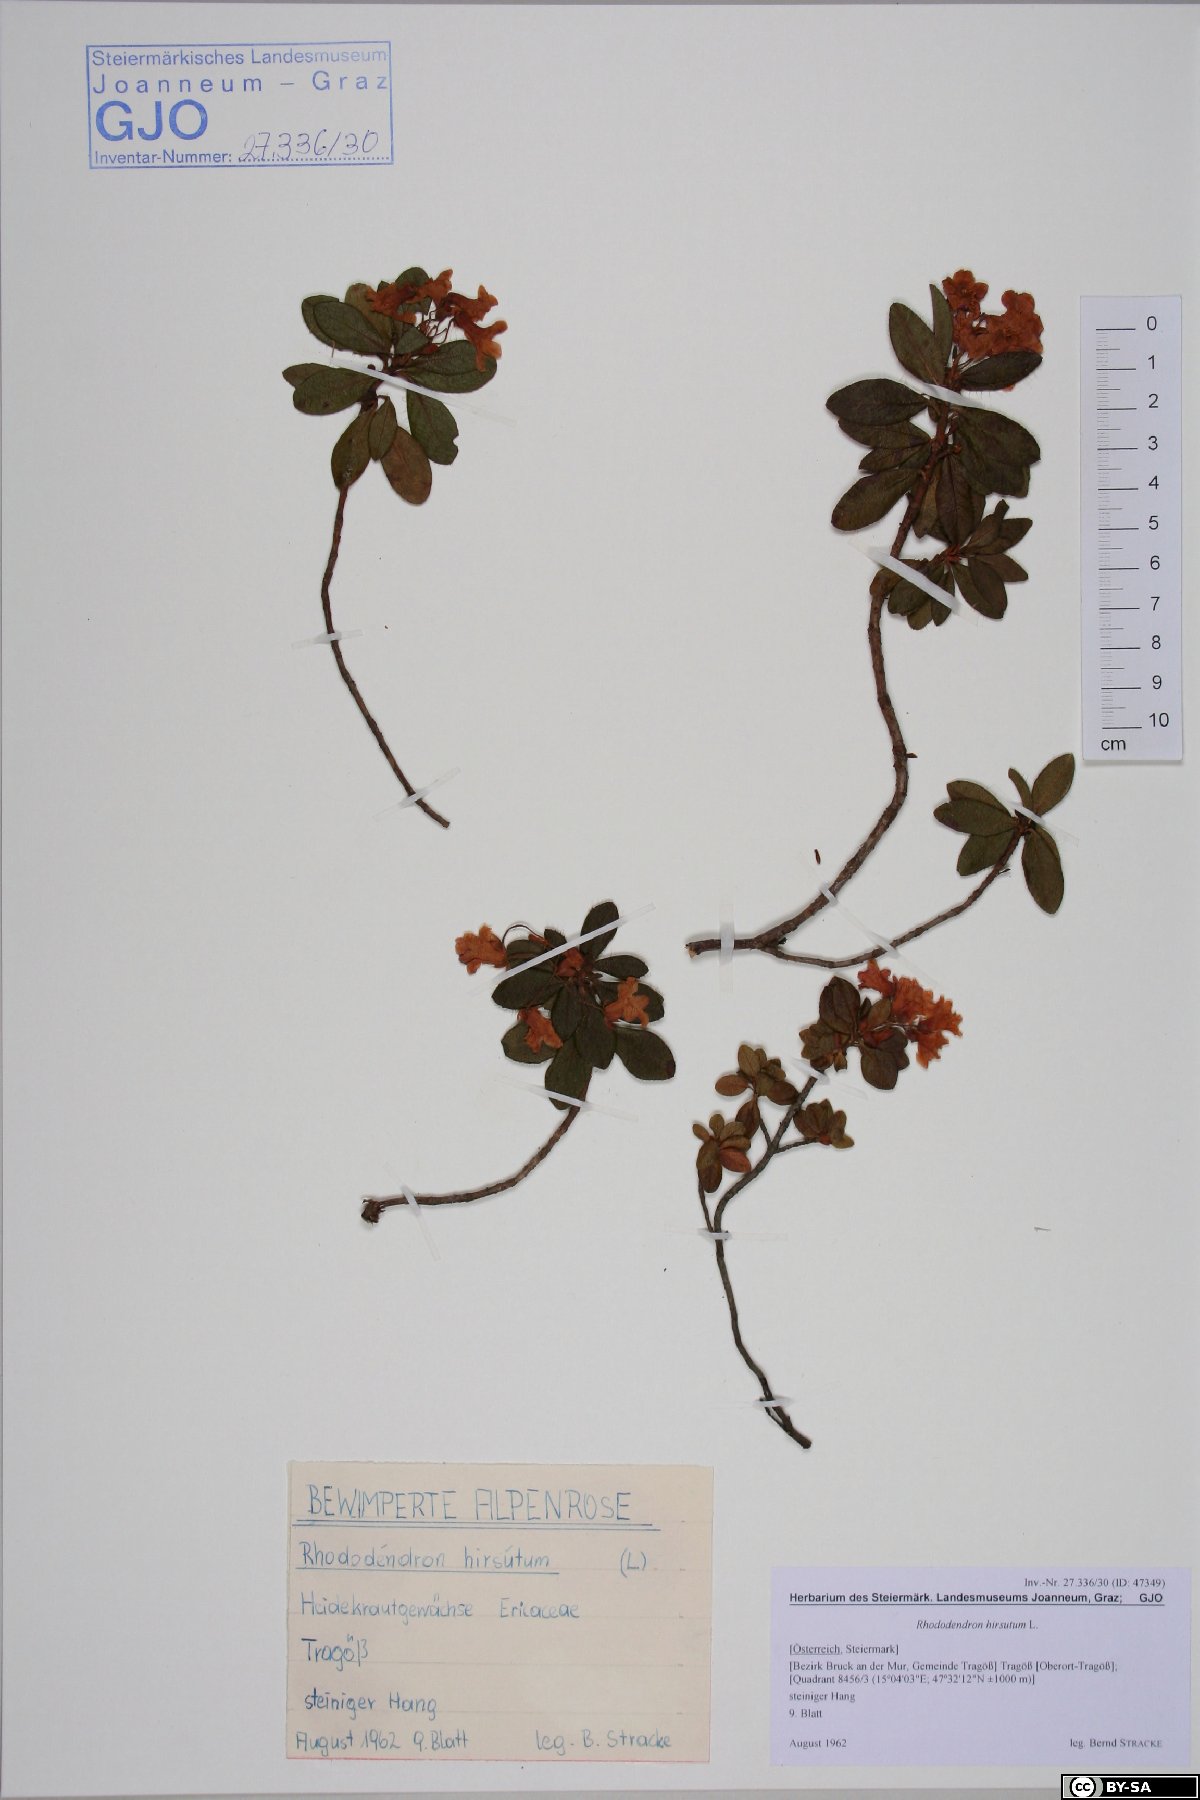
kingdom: Plantae
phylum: Tracheophyta
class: Magnoliopsida
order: Ericales
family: Ericaceae
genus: Rhododendron
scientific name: Rhododendron hirsutum
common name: Hairy alpenrose
